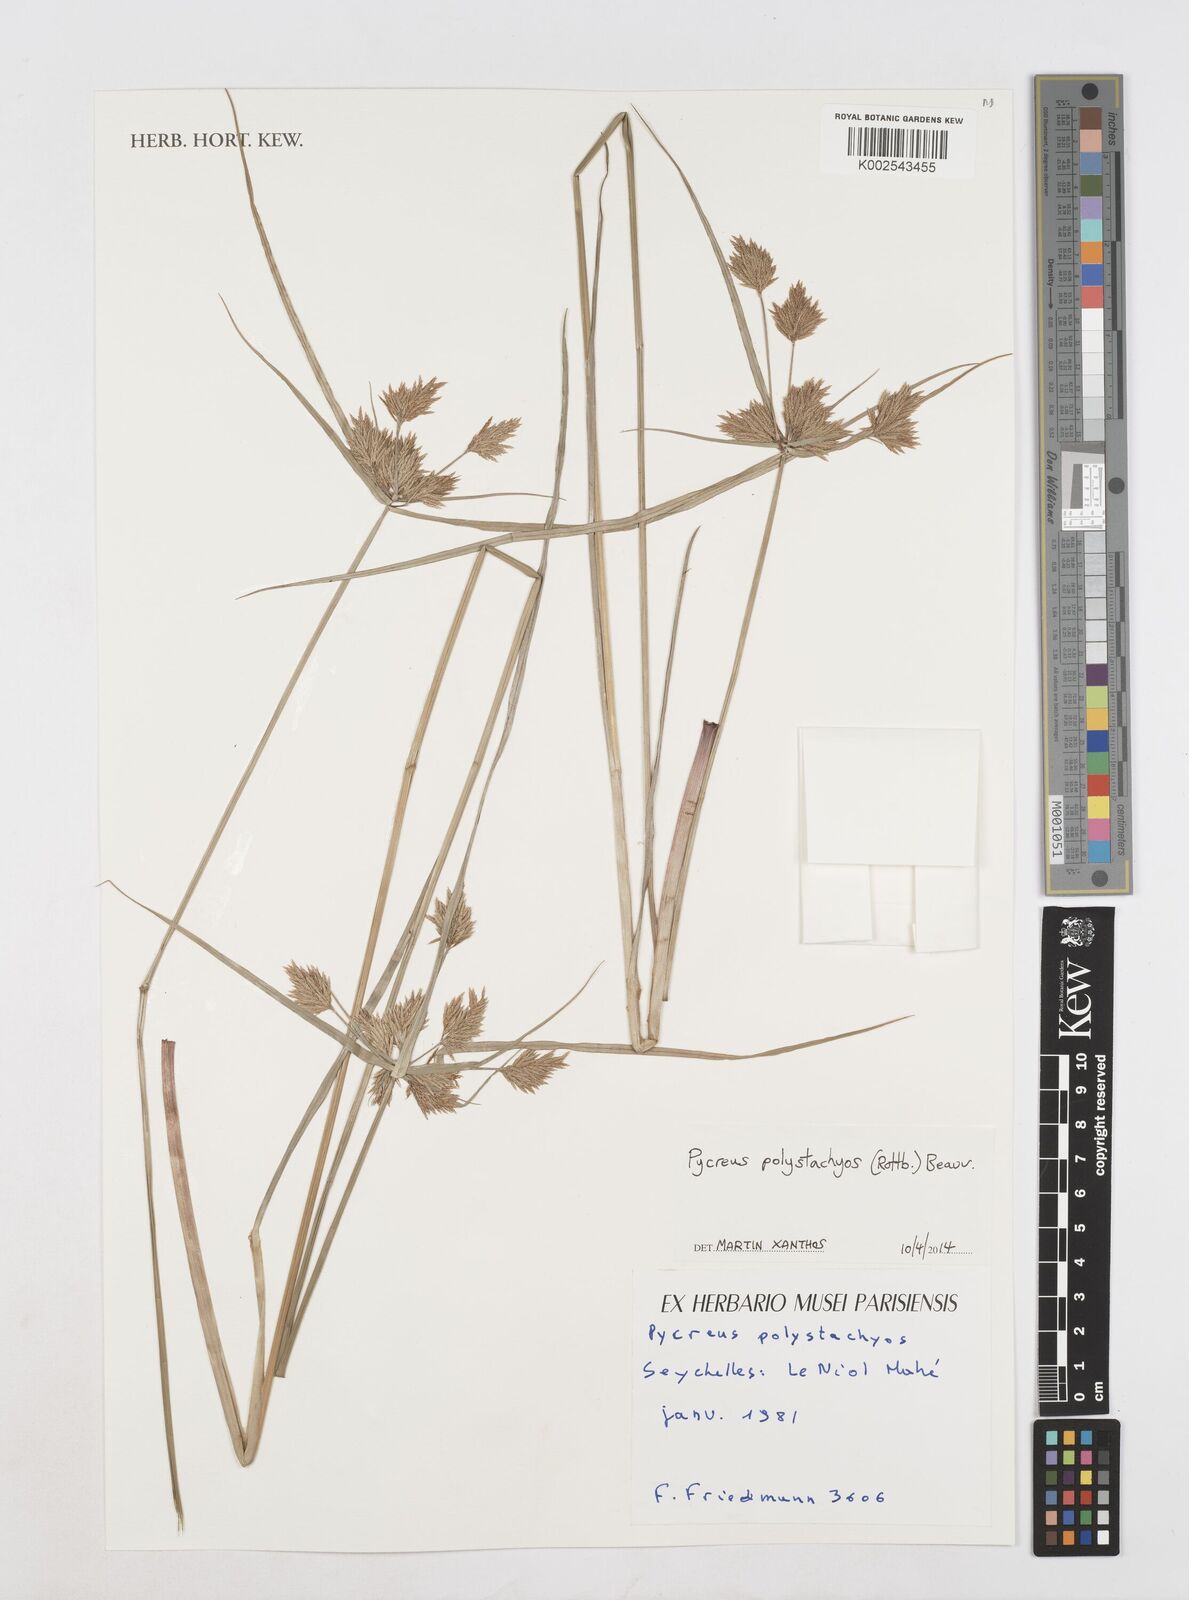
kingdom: Plantae
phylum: Tracheophyta
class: Liliopsida
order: Poales
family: Cyperaceae
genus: Cyperus
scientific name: Cyperus polystachyos
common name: Bunchy flat sedge
